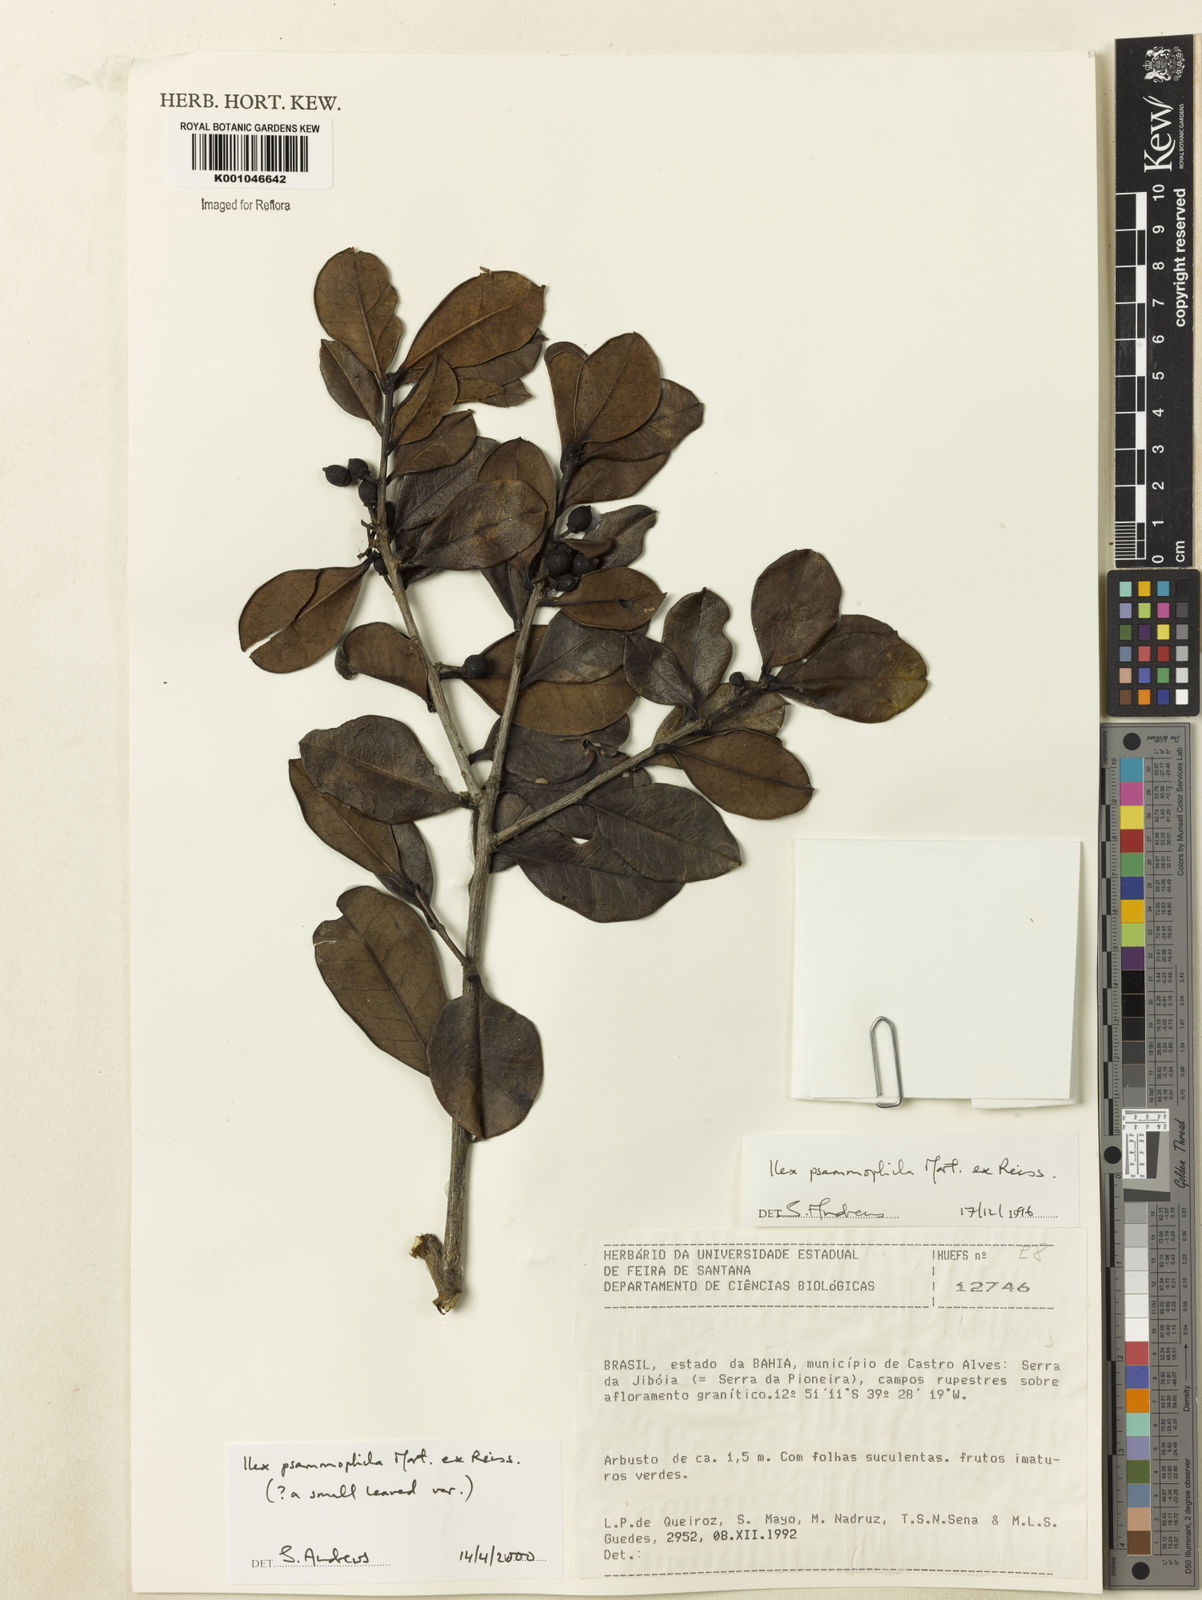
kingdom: Plantae
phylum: Tracheophyta
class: Magnoliopsida
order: Aquifoliales
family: Aquifoliaceae
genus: Ilex
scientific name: Ilex psammophila
